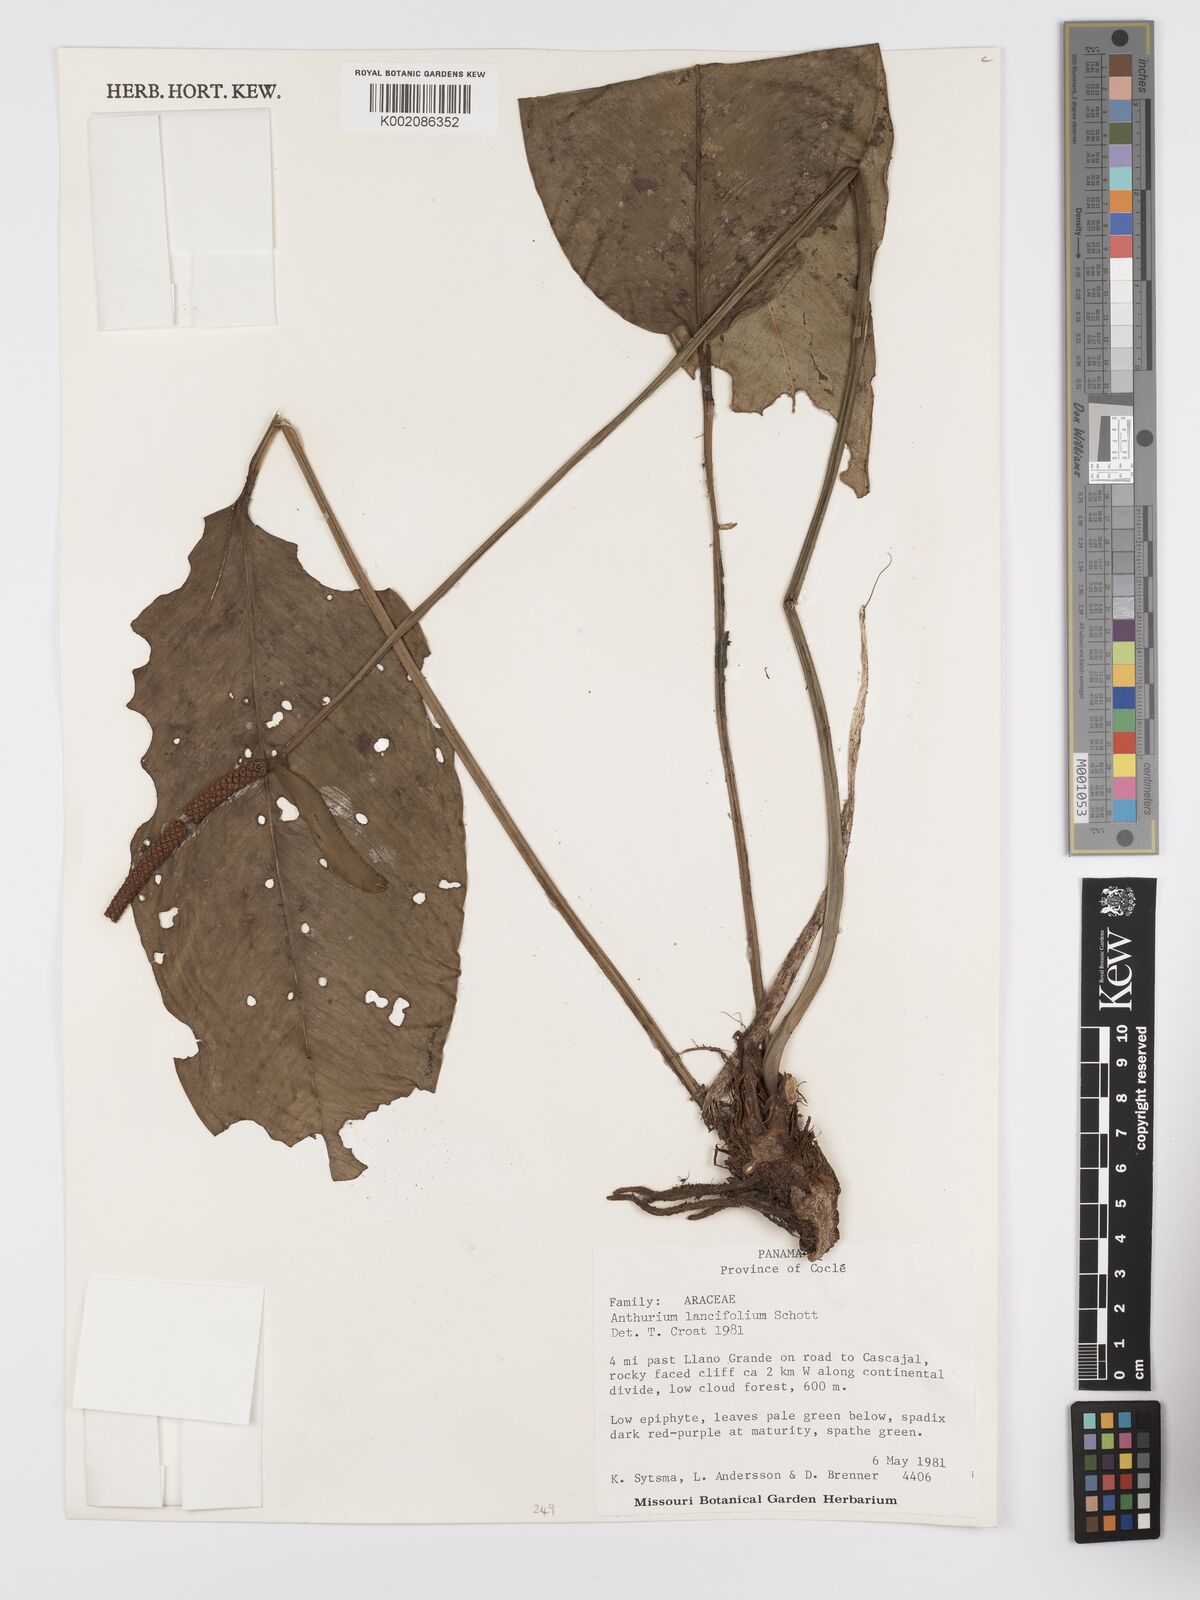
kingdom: Plantae
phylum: Tracheophyta
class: Liliopsida
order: Alismatales
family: Araceae
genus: Anthurium
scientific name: Anthurium lancifolium
